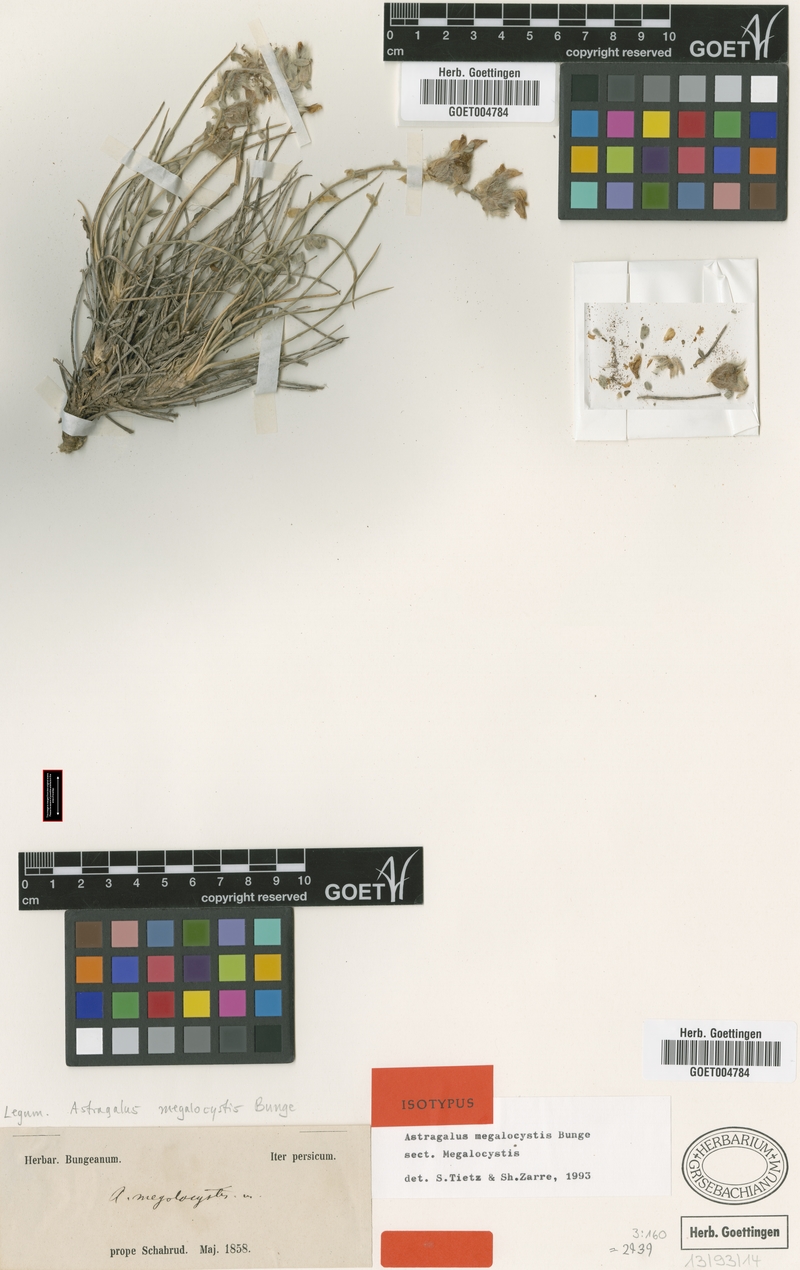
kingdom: Plantae
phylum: Tracheophyta
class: Magnoliopsida
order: Fabales
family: Fabaceae
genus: Astragalus
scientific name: Astragalus megalocystis
